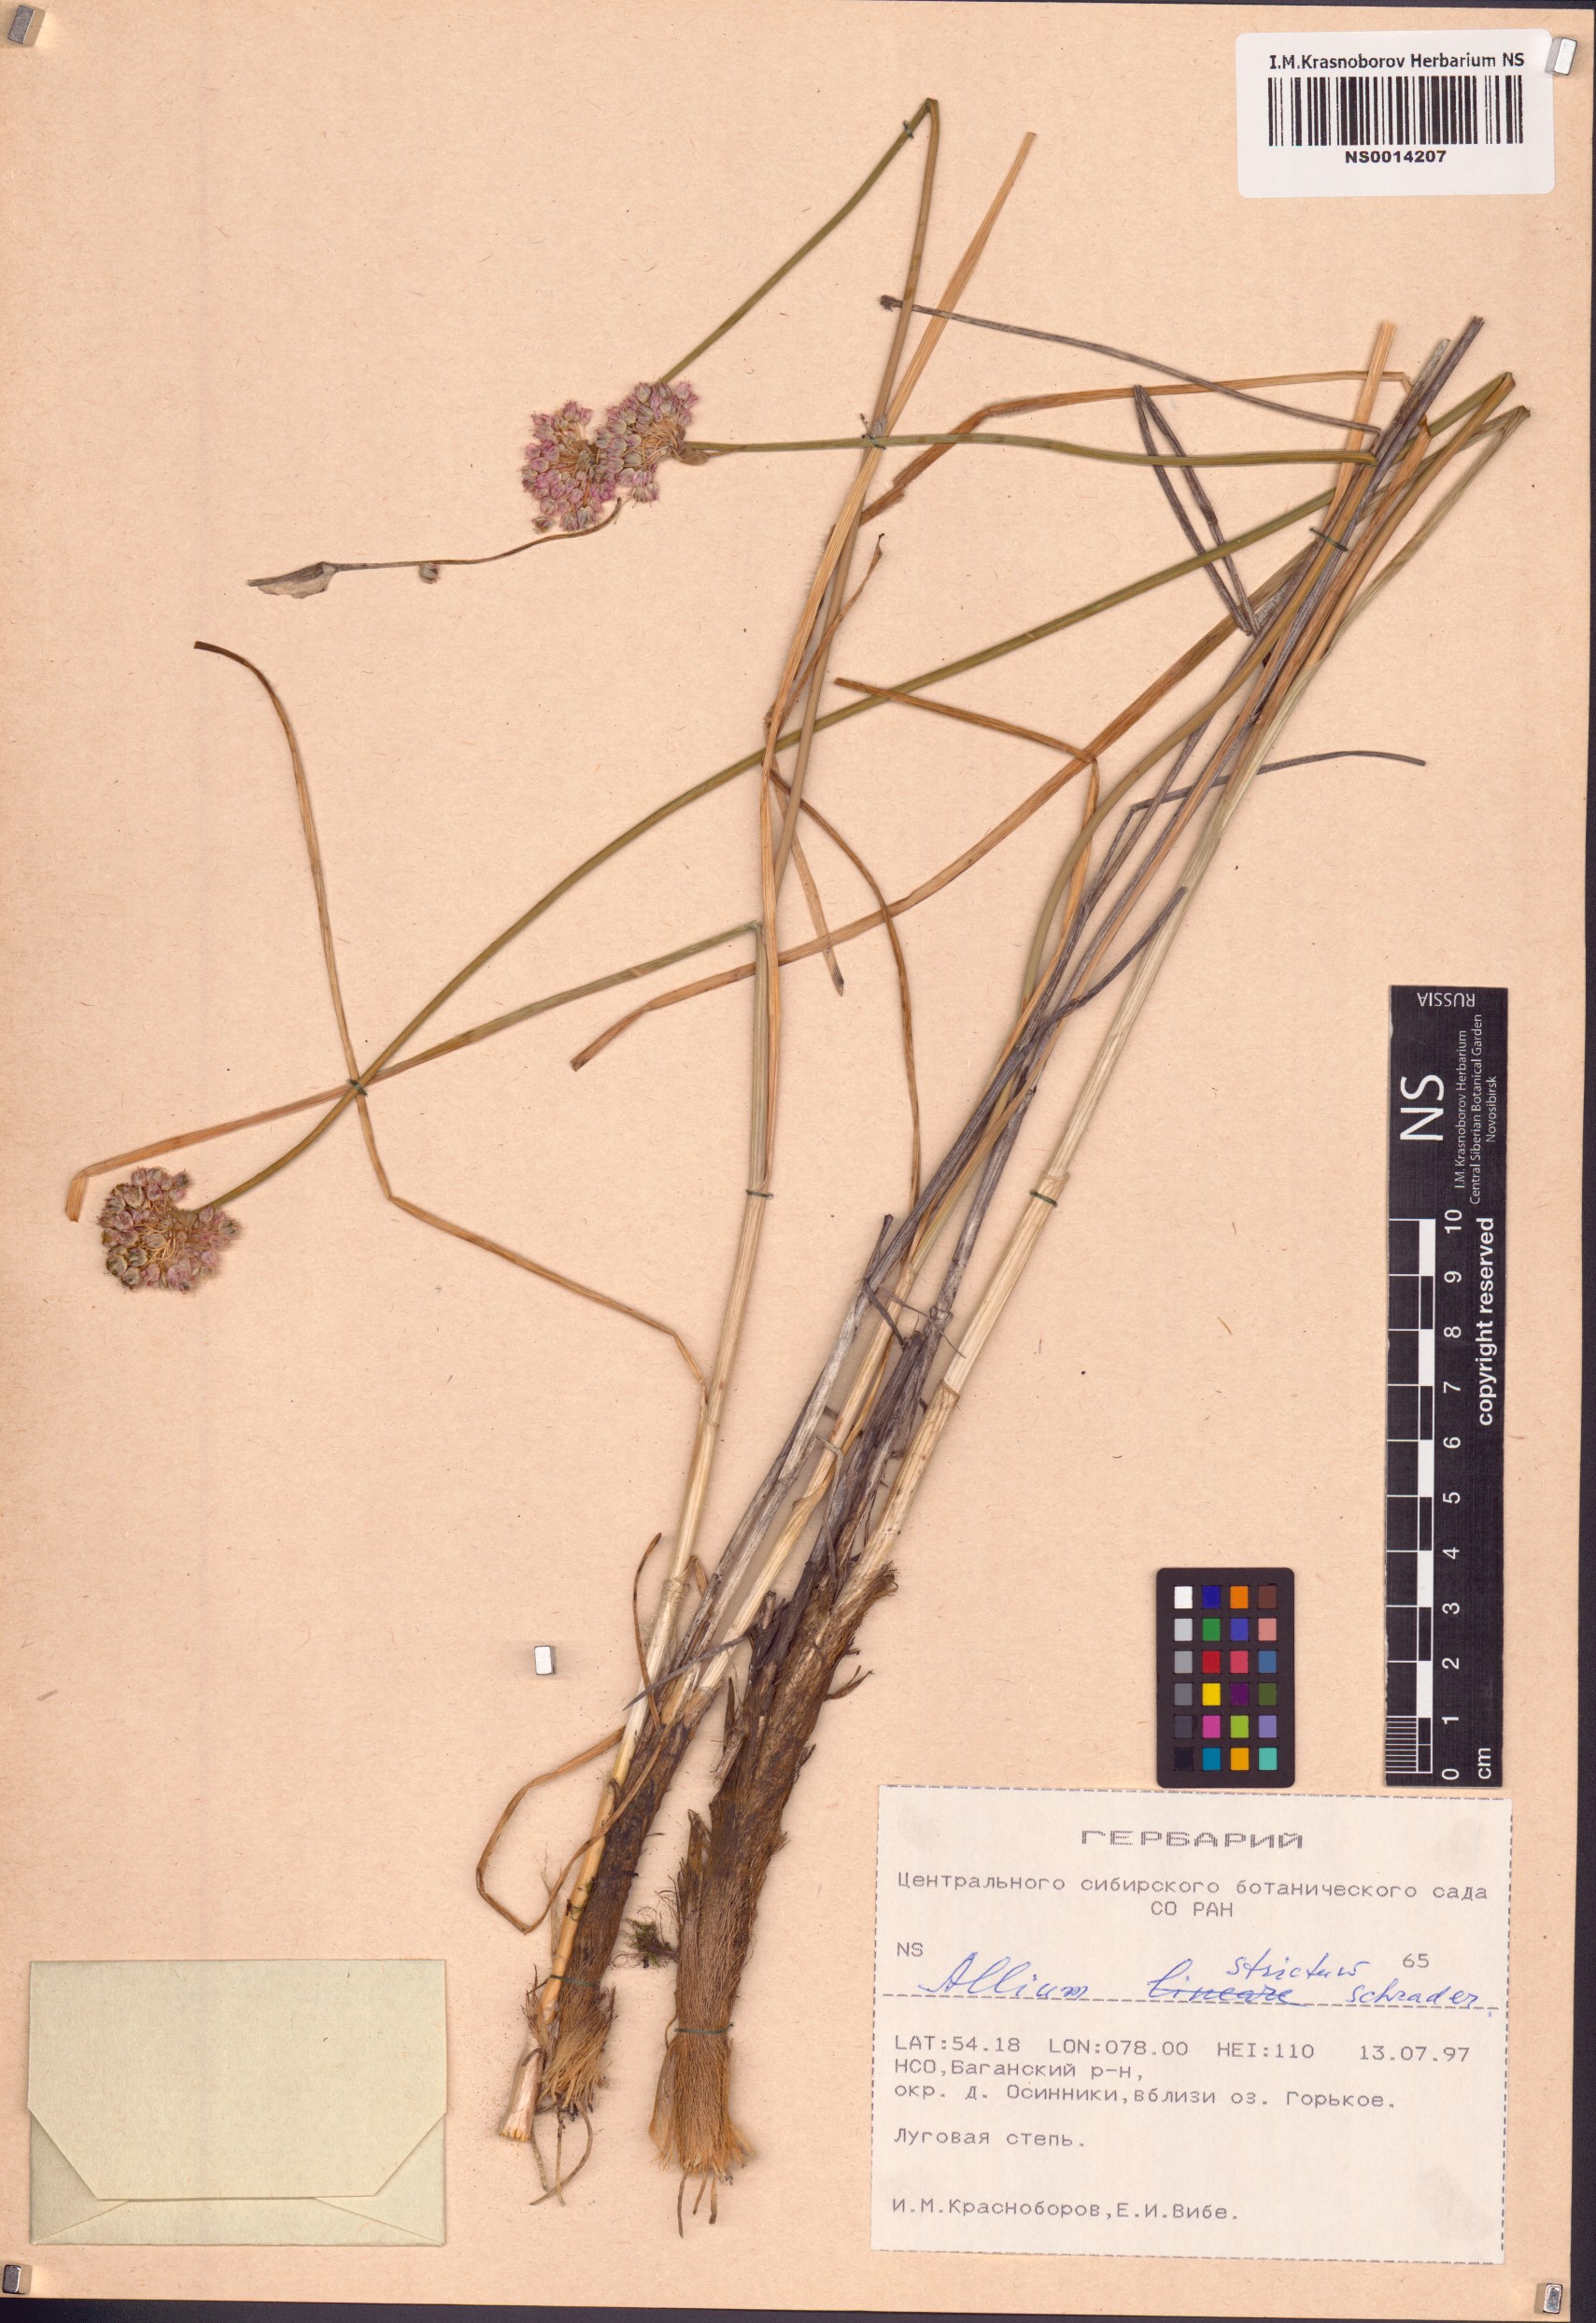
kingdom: Plantae
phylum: Tracheophyta
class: Liliopsida
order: Asparagales
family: Amaryllidaceae
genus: Allium
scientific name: Allium strictum
